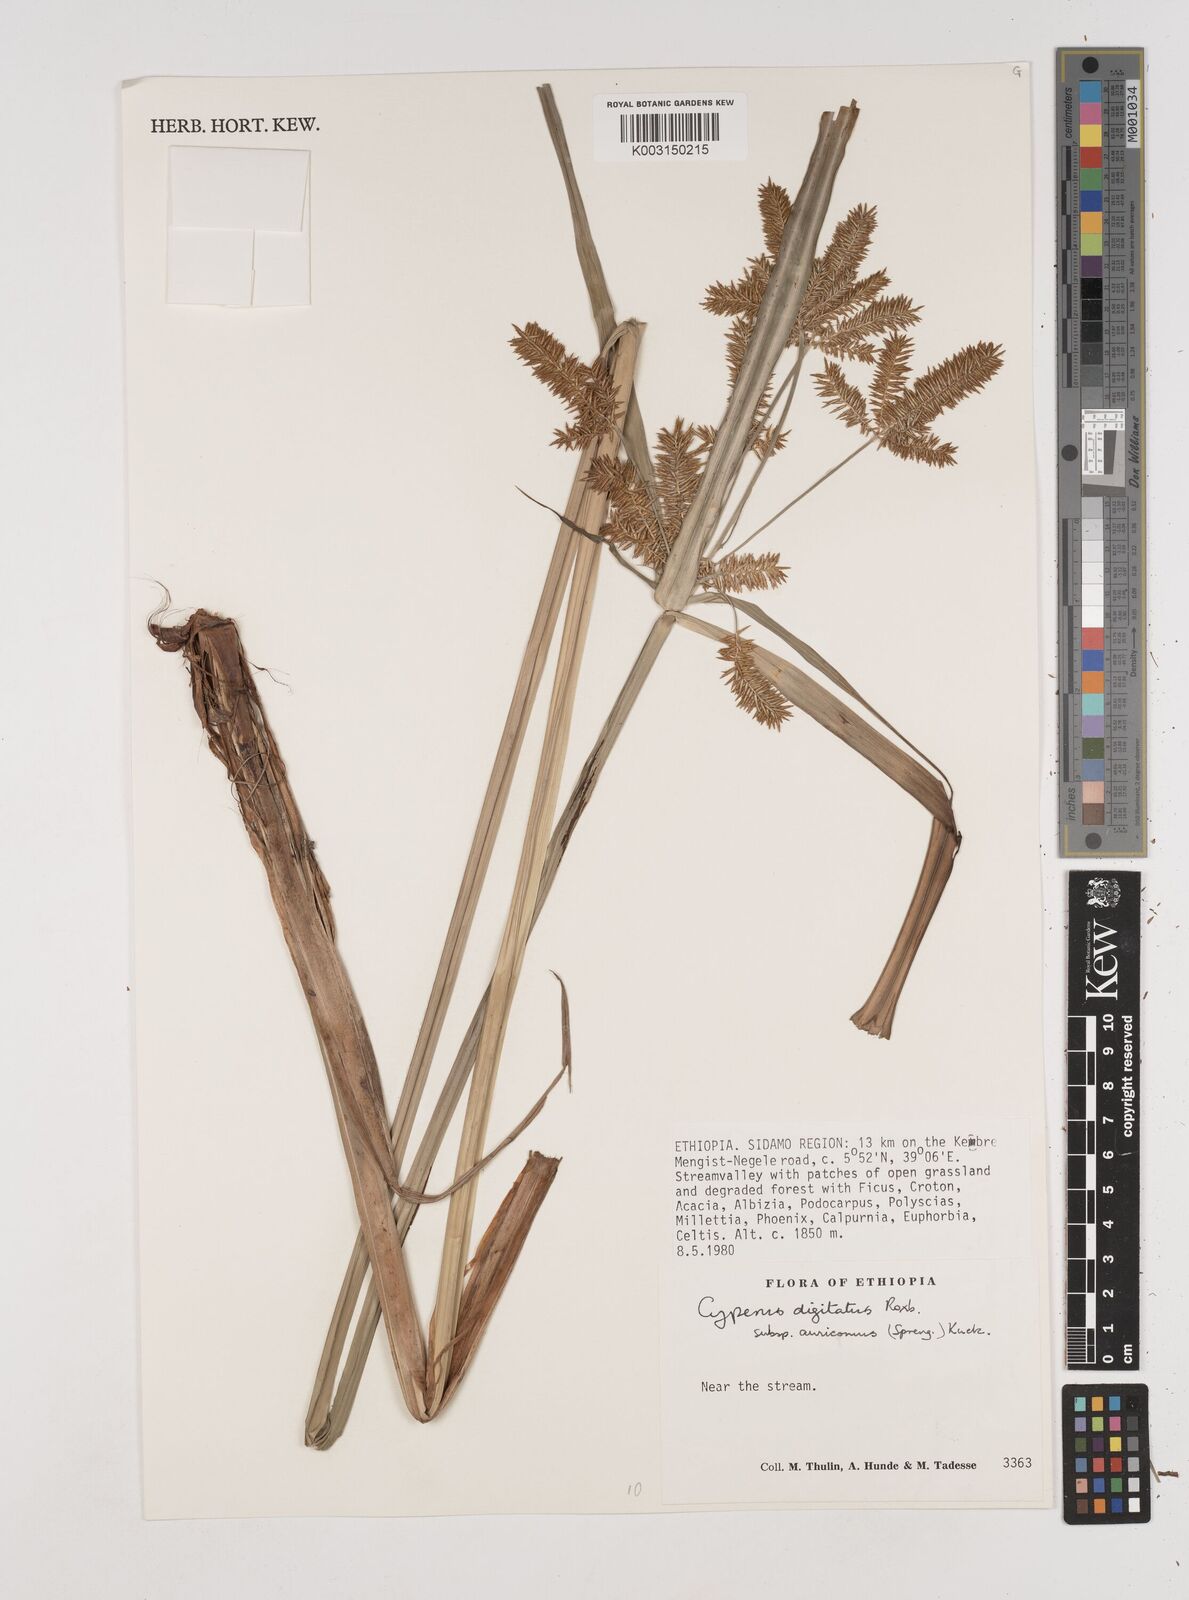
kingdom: Plantae
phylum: Tracheophyta
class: Liliopsida
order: Poales
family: Cyperaceae
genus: Cyperus
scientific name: Cyperus digitatus
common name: Finger flatsedge
